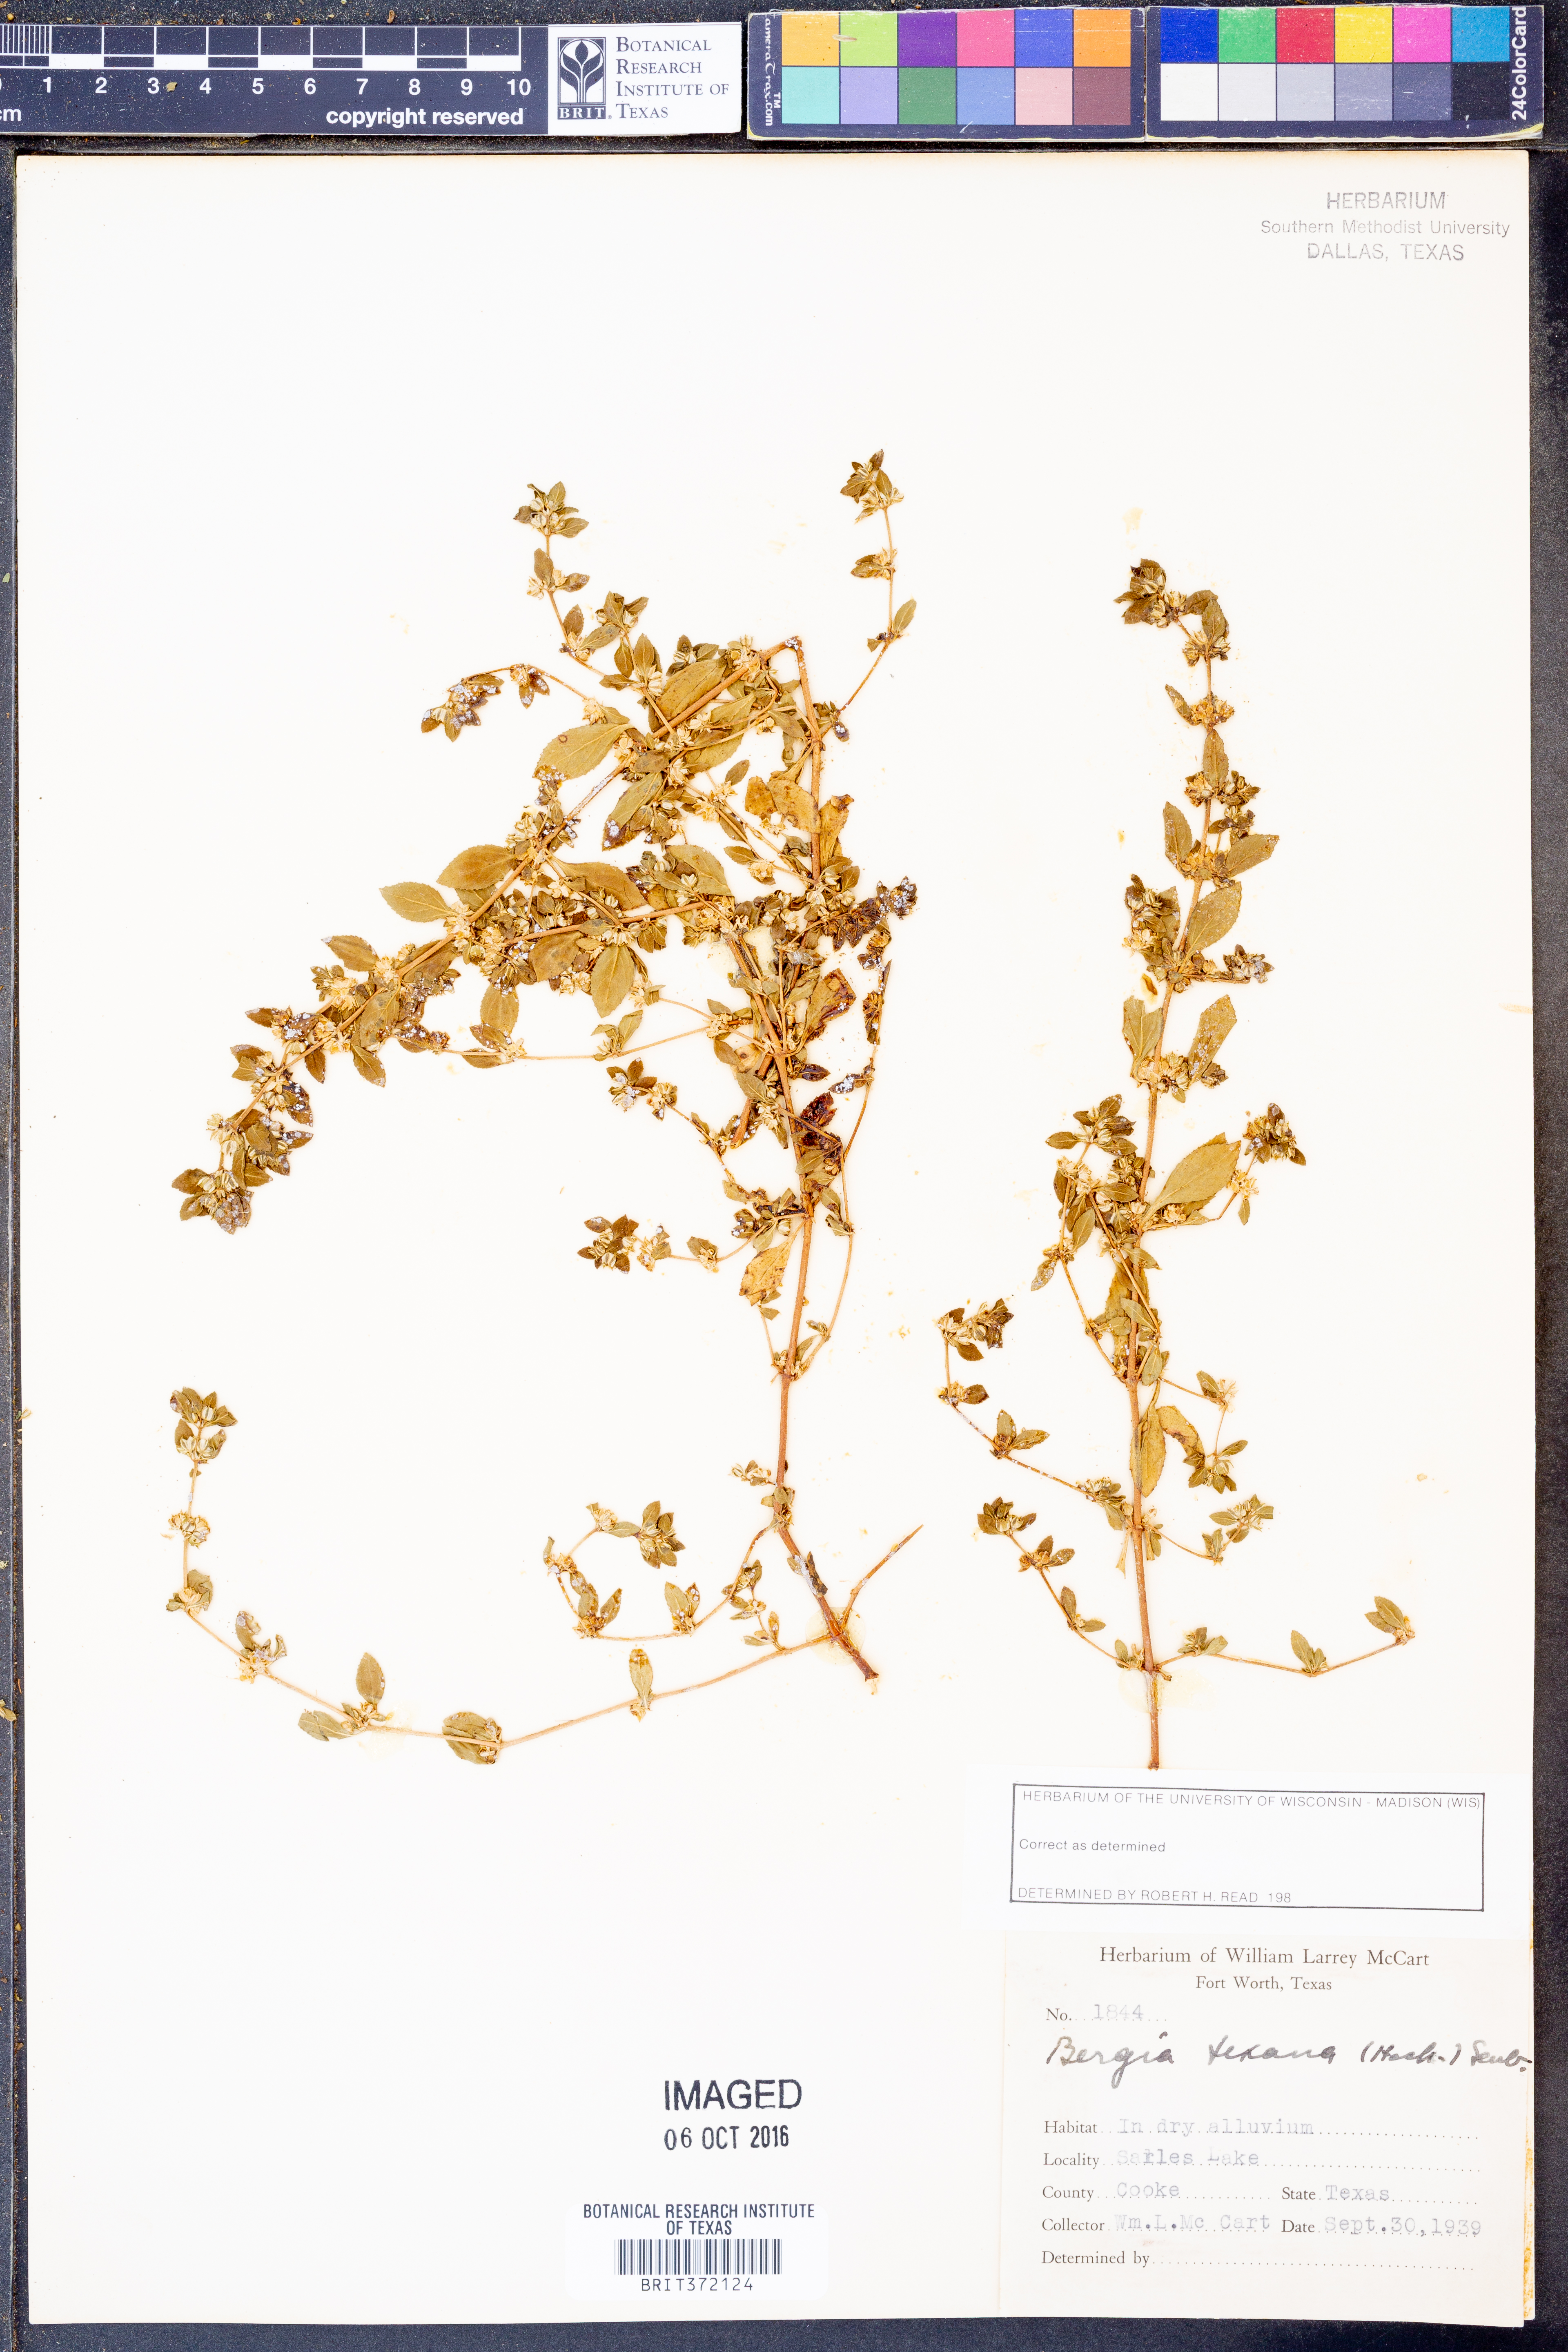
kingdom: Plantae
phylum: Tracheophyta
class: Magnoliopsida
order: Malpighiales
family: Elatinaceae
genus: Bergia
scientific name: Bergia texana
